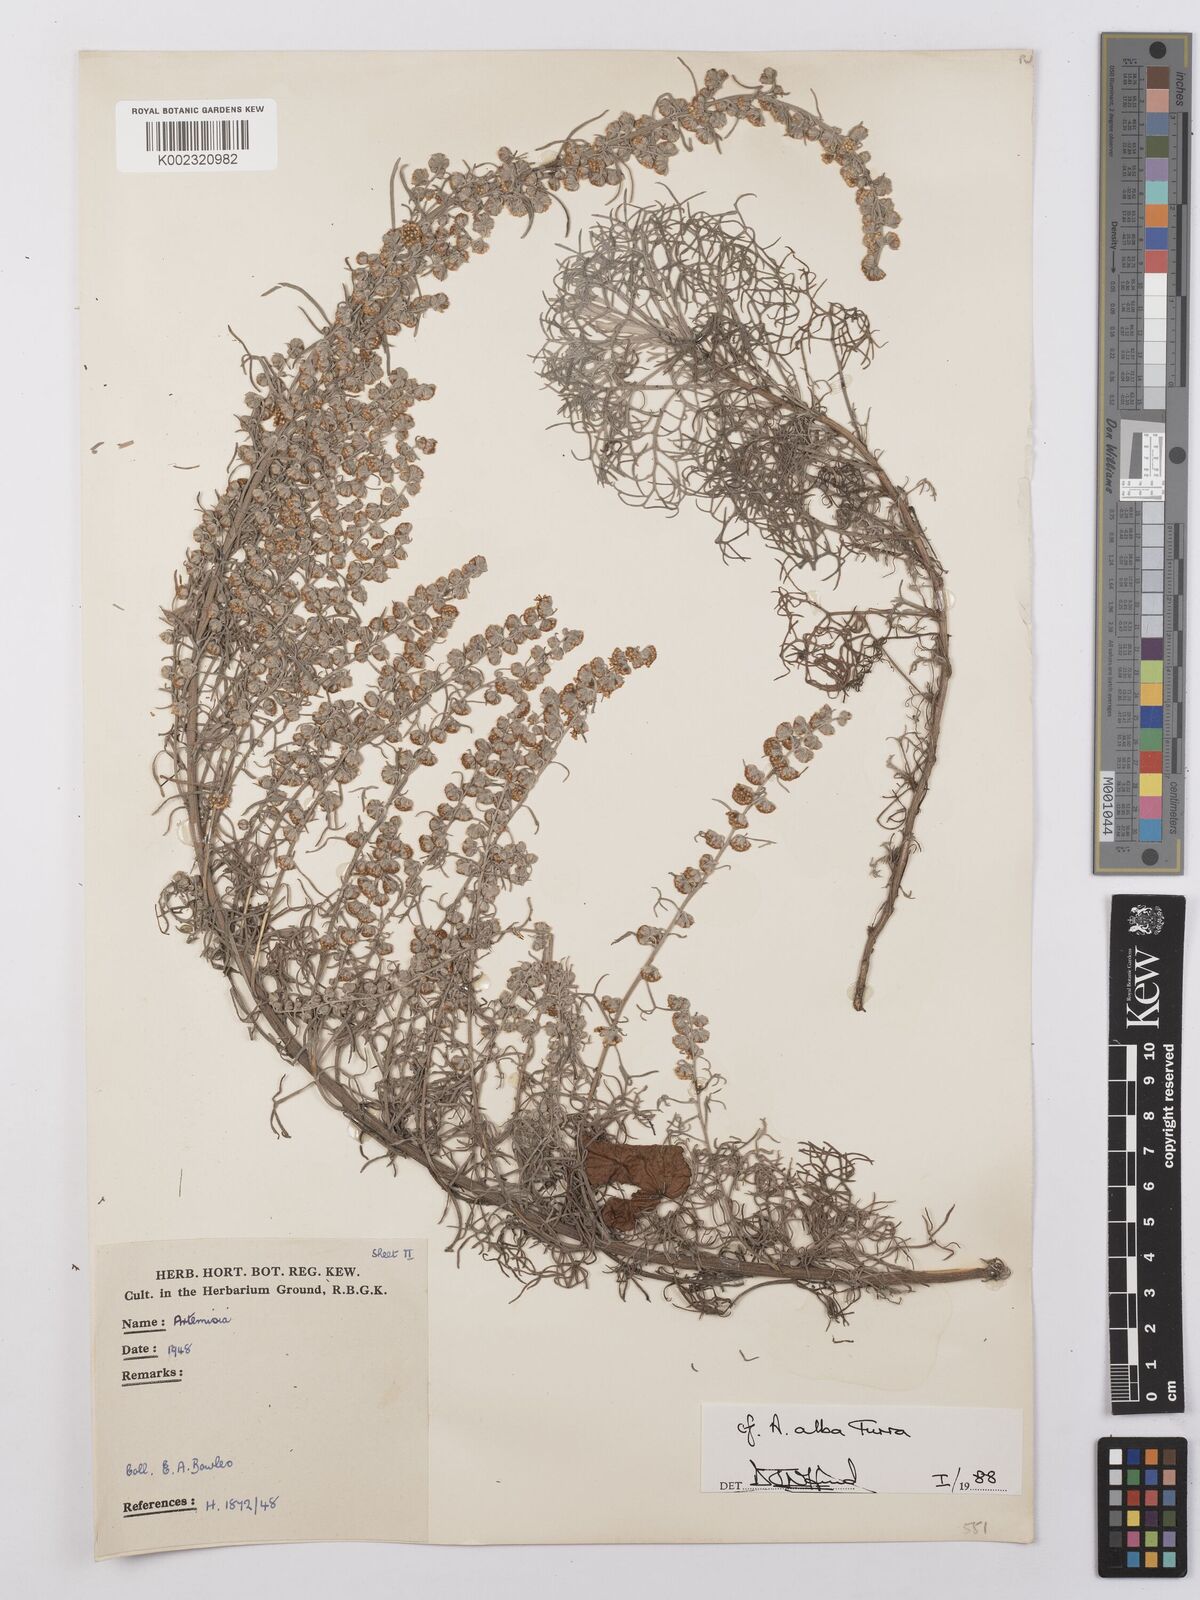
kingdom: Plantae
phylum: Tracheophyta
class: Magnoliopsida
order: Asterales
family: Asteraceae
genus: Artemisia
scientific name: Artemisia
